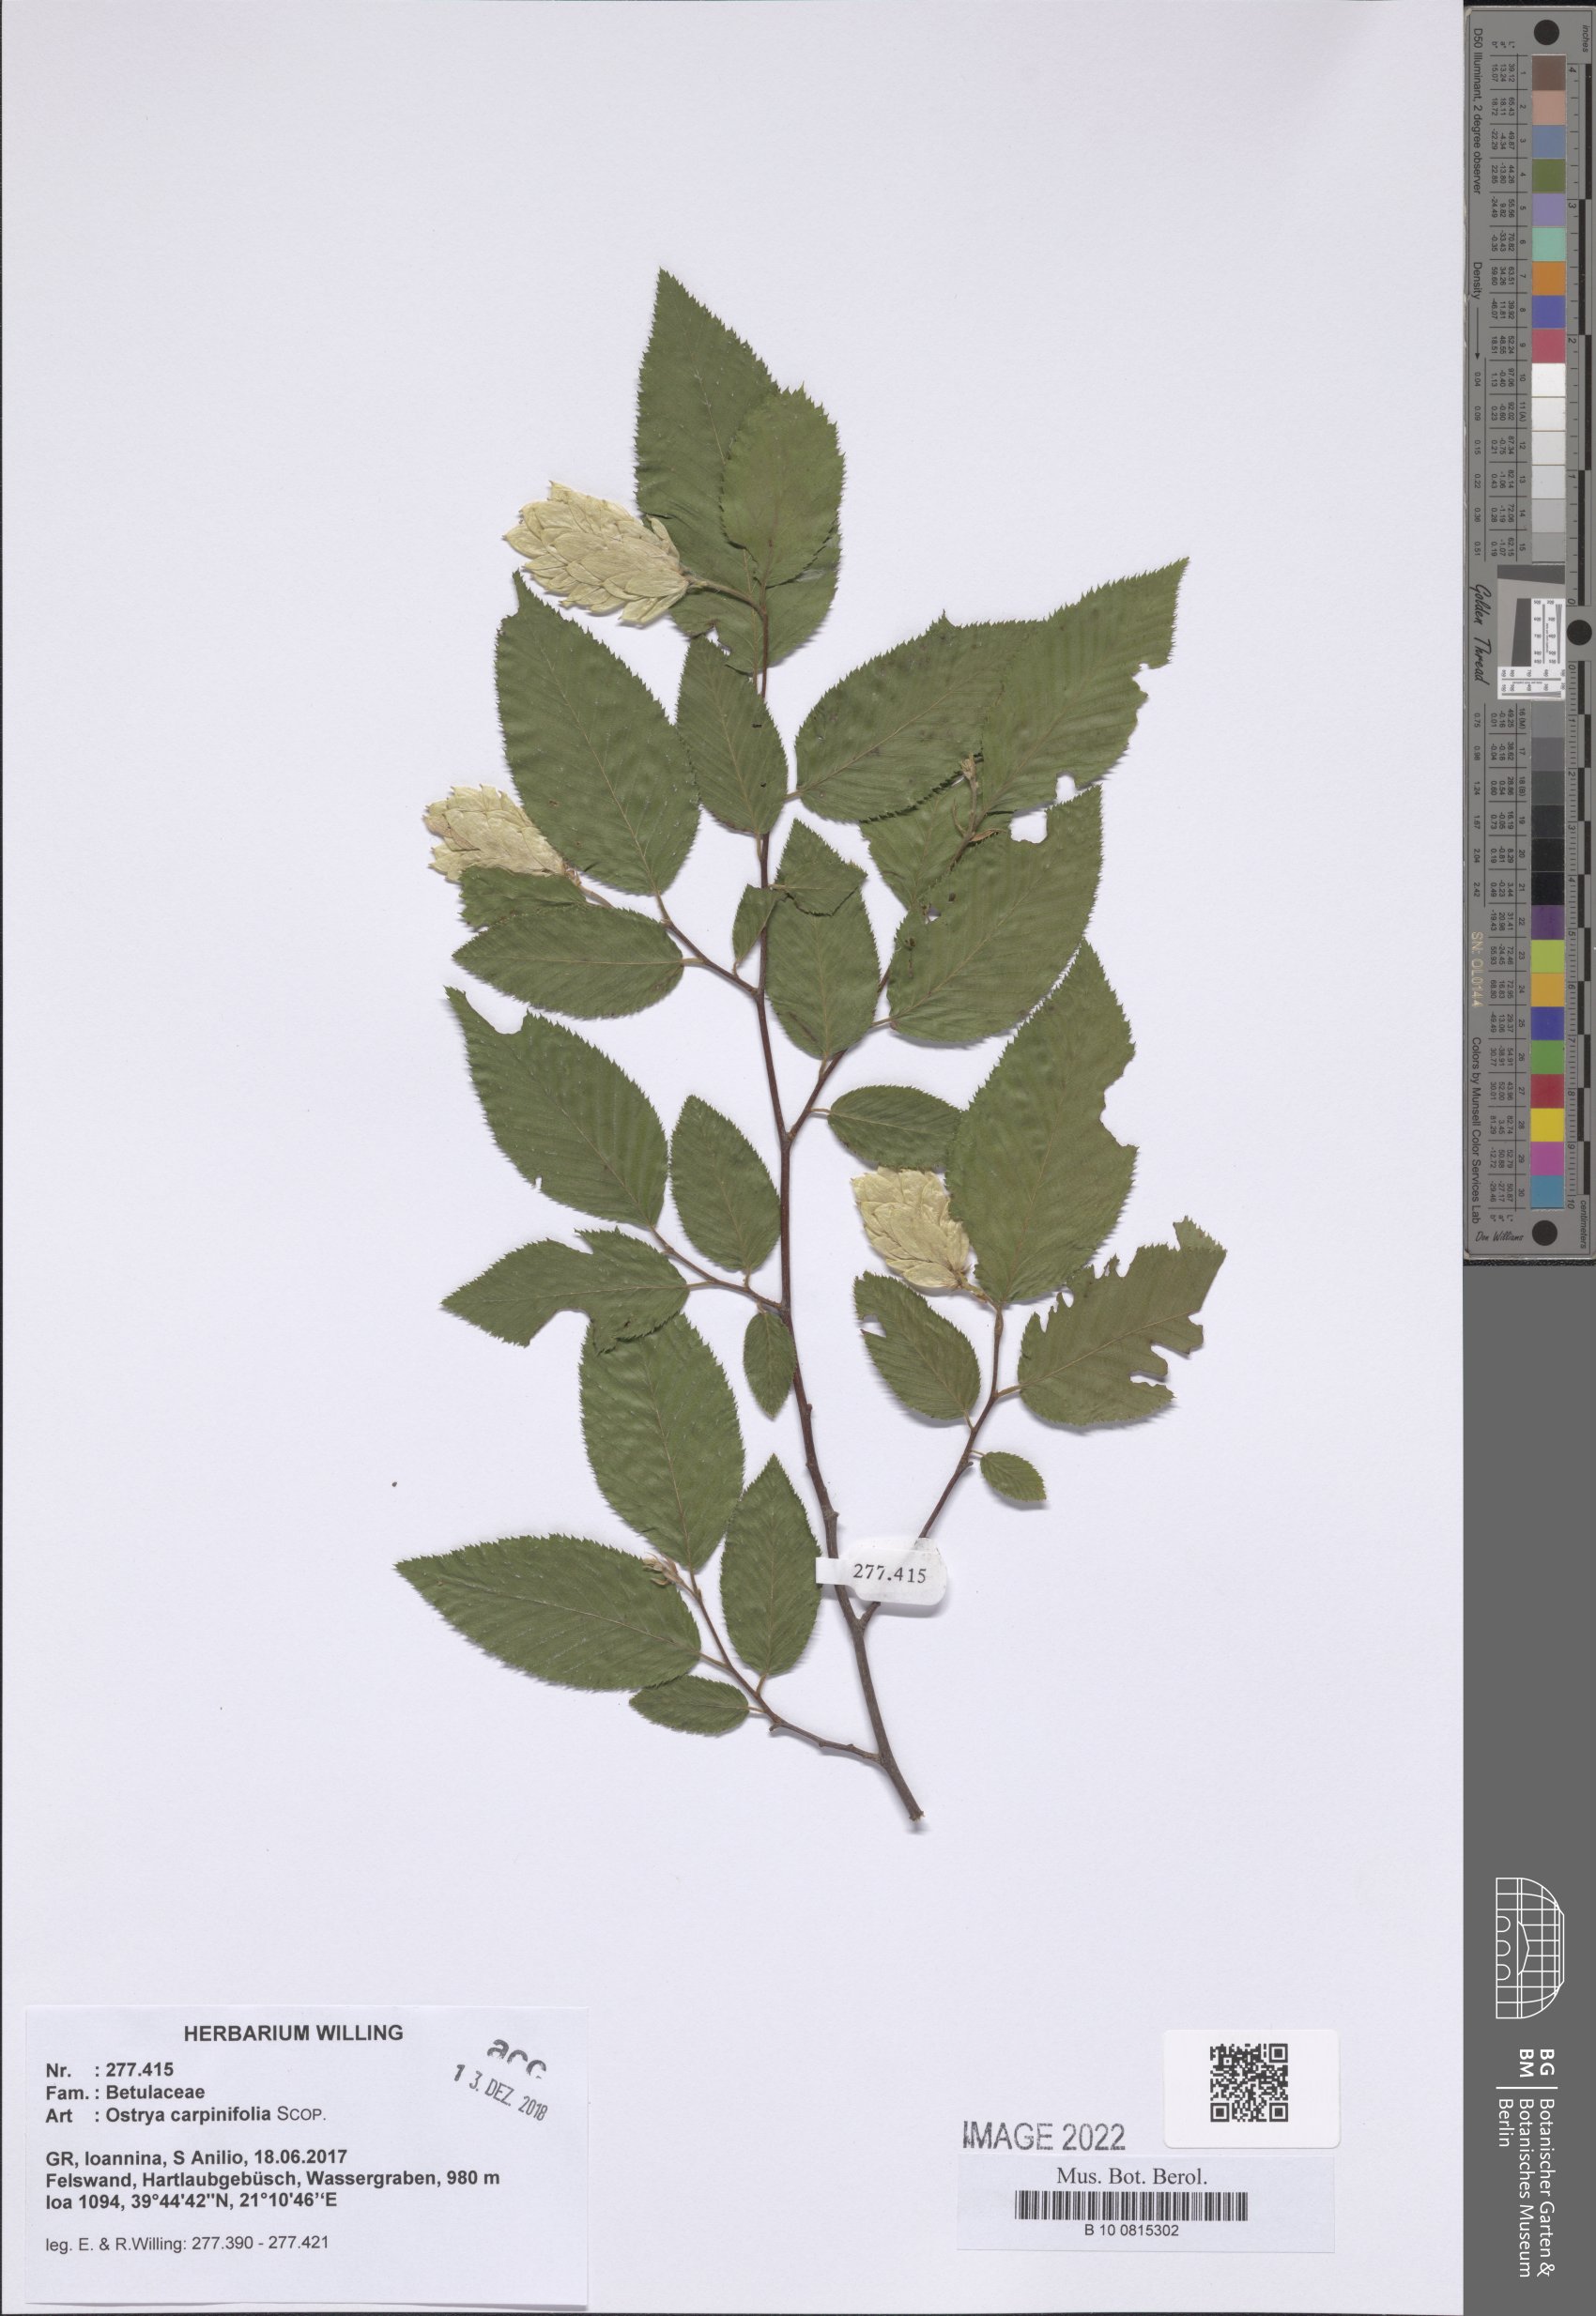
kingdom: Plantae
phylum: Tracheophyta
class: Magnoliopsida
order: Fagales
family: Betulaceae
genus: Ostrya
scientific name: Ostrya carpinifolia
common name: European hop-hornbeam
